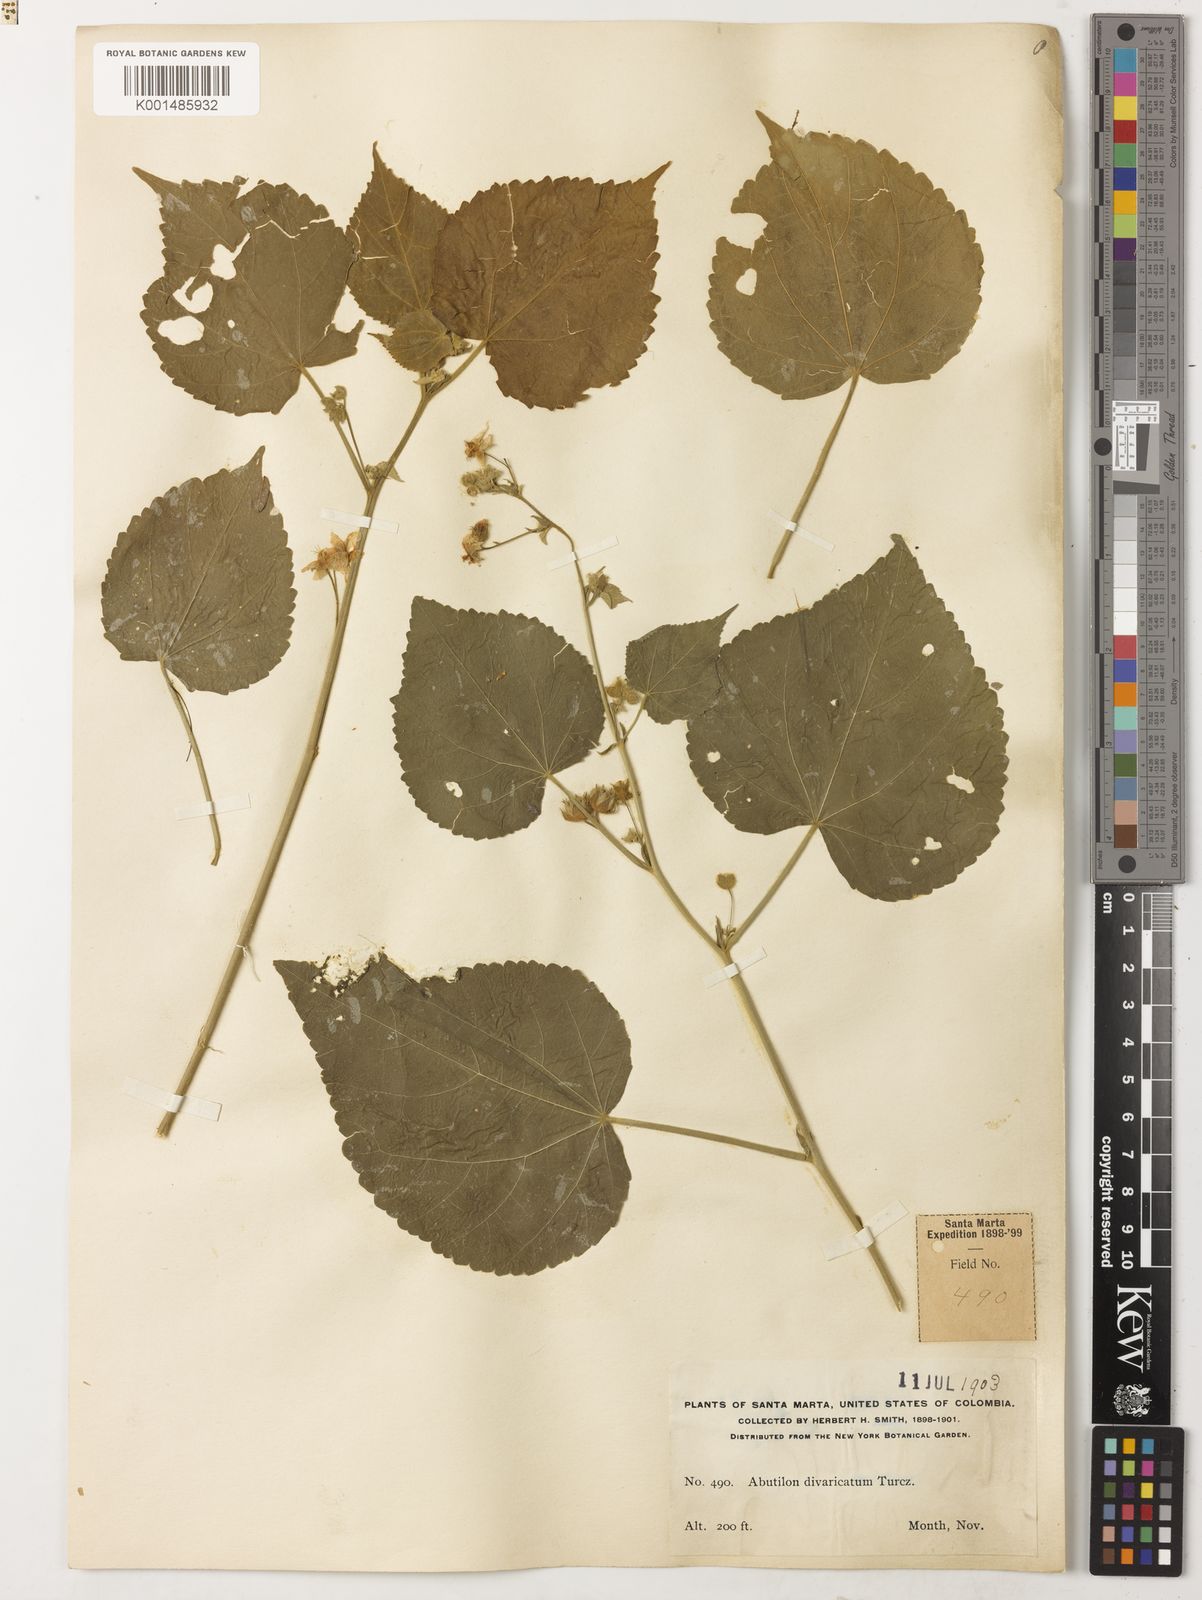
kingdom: Plantae
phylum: Tracheophyta
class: Magnoliopsida
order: Malvales
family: Malvaceae
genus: Abutilon
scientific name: Abutilon divaricatum
